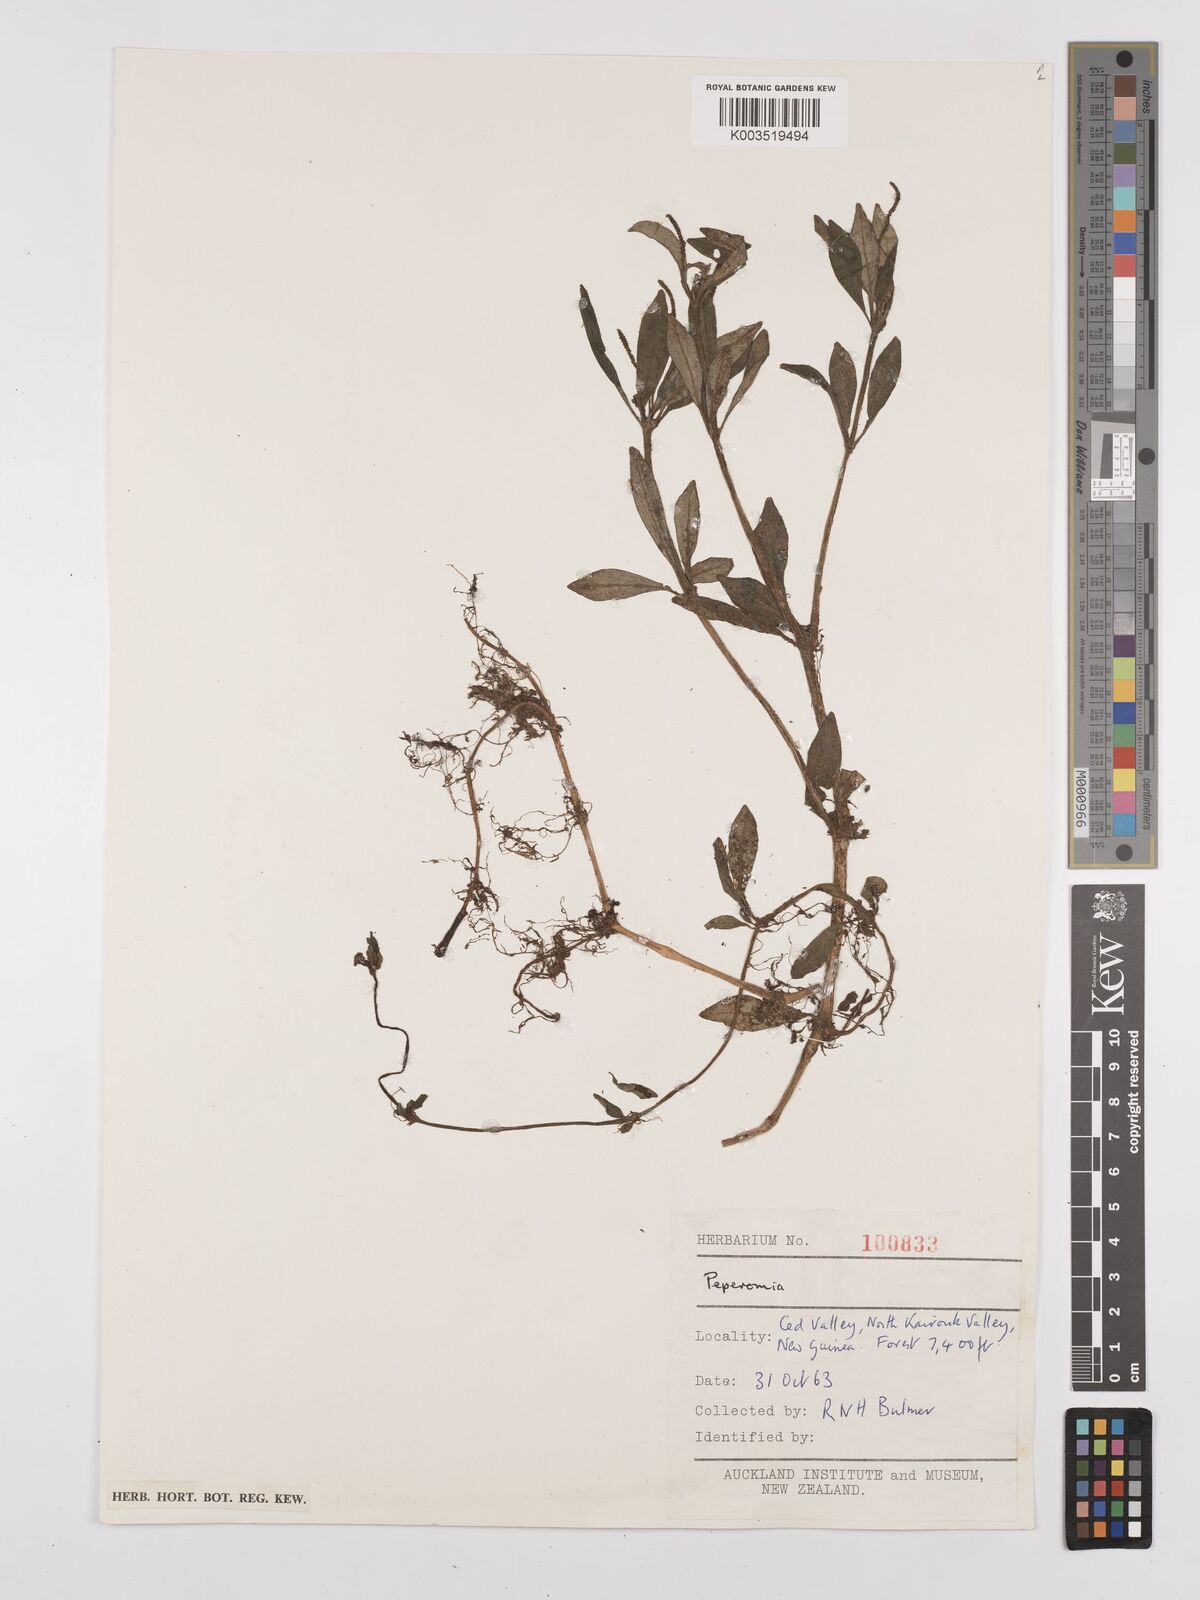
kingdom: Plantae
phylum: Tracheophyta
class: Magnoliopsida
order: Piperales
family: Piperaceae
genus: Peperomia
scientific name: Peperomia
